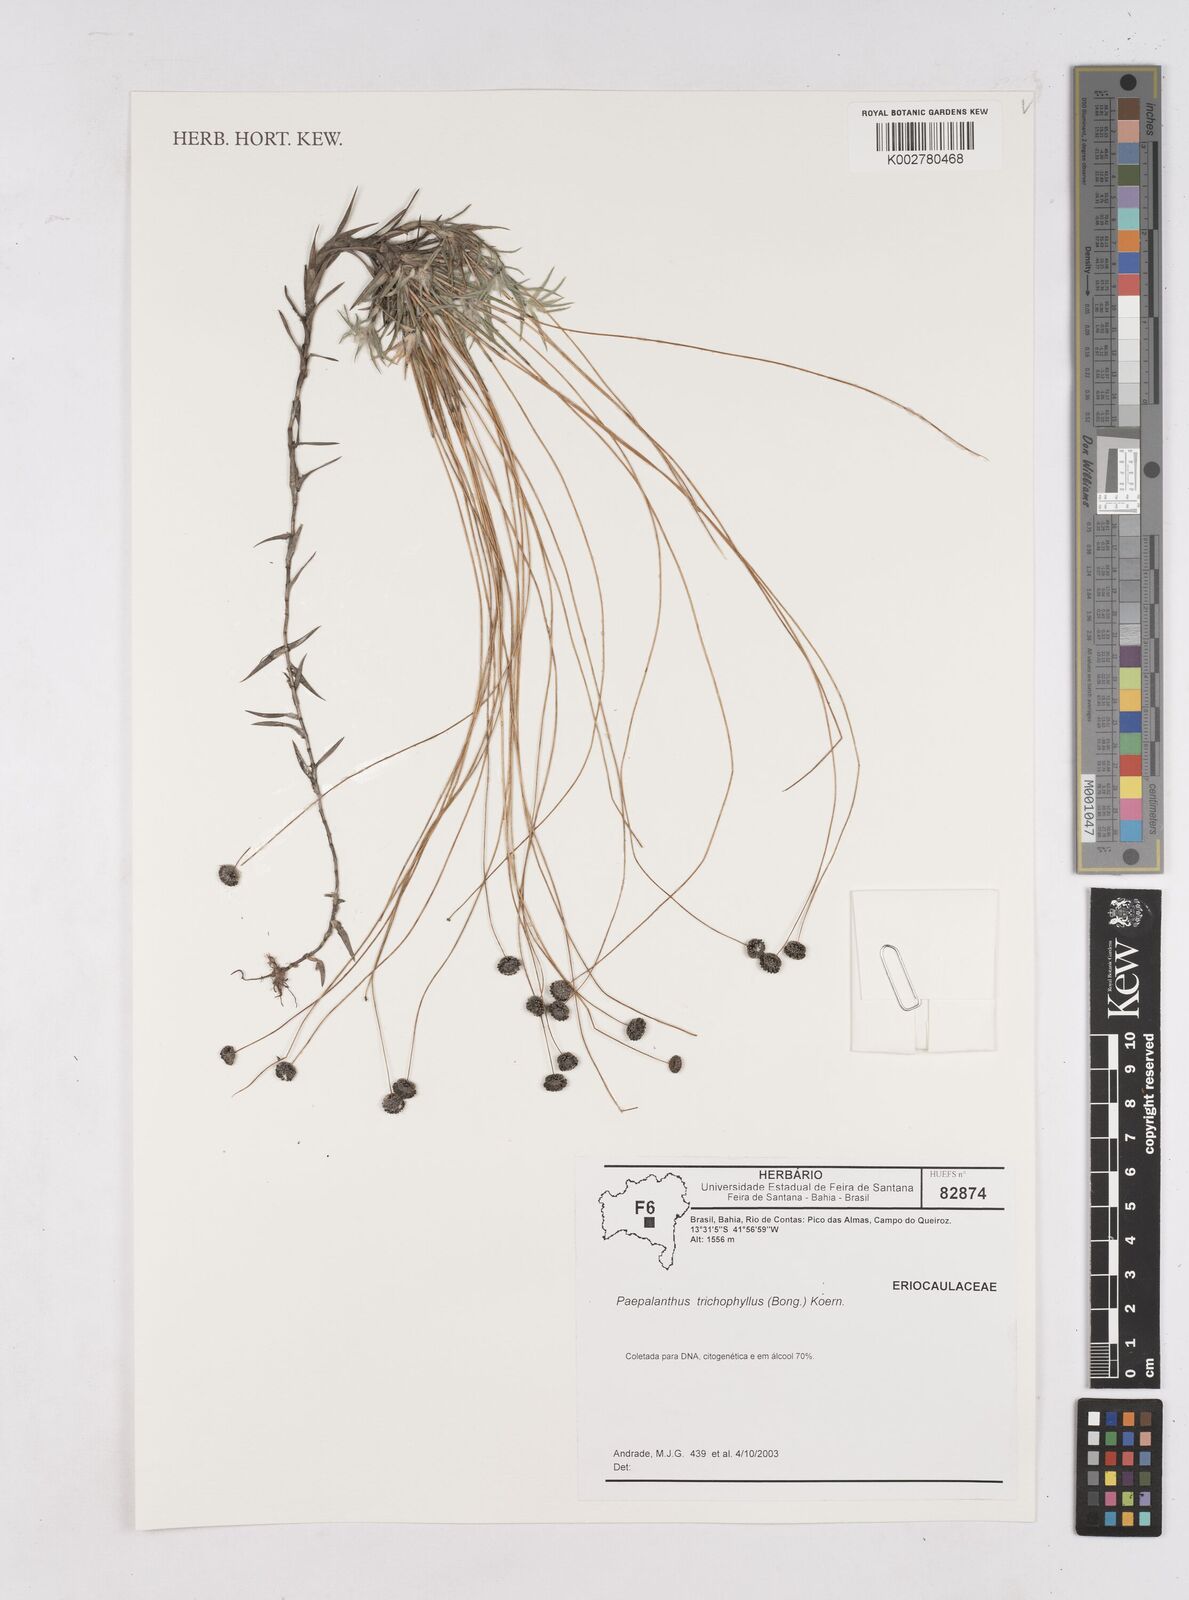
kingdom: Plantae
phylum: Tracheophyta
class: Liliopsida
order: Poales
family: Eriocaulaceae
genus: Paepalanthus
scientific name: Paepalanthus trichophyllus
